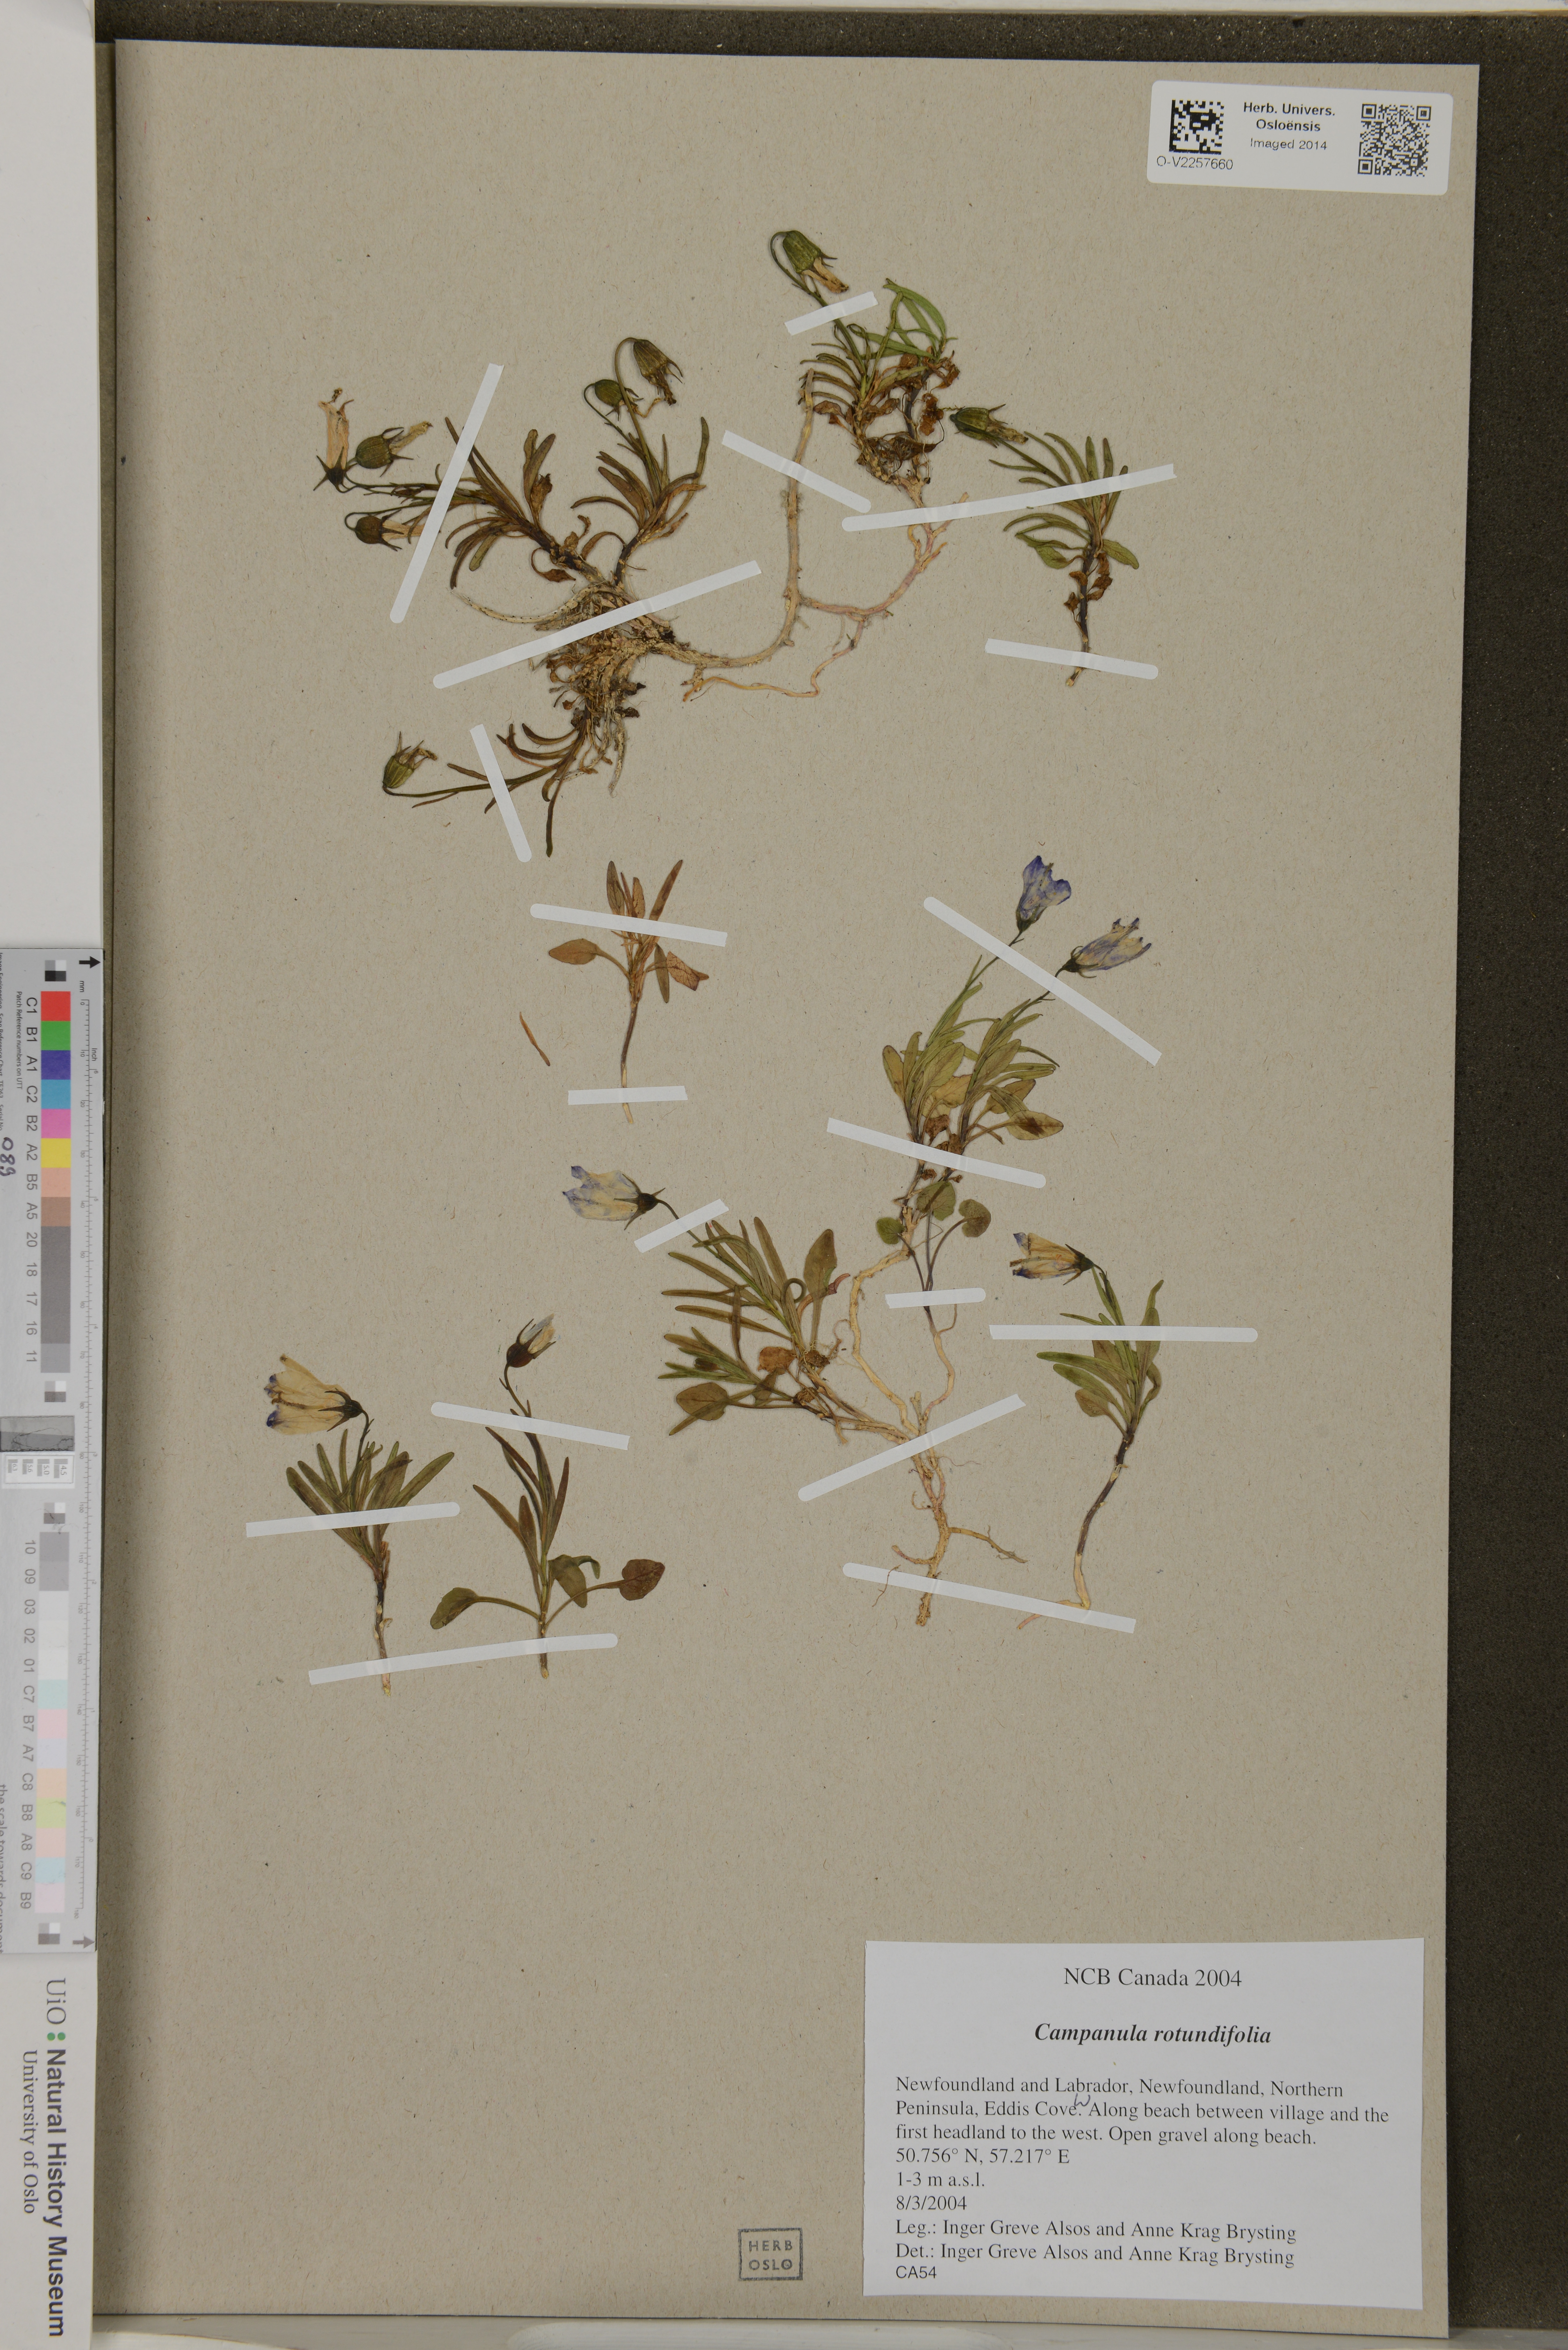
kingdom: Plantae
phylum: Tracheophyta
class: Magnoliopsida
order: Asterales
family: Campanulaceae
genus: Campanula
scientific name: Campanula rotundifolia
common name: Harebell
